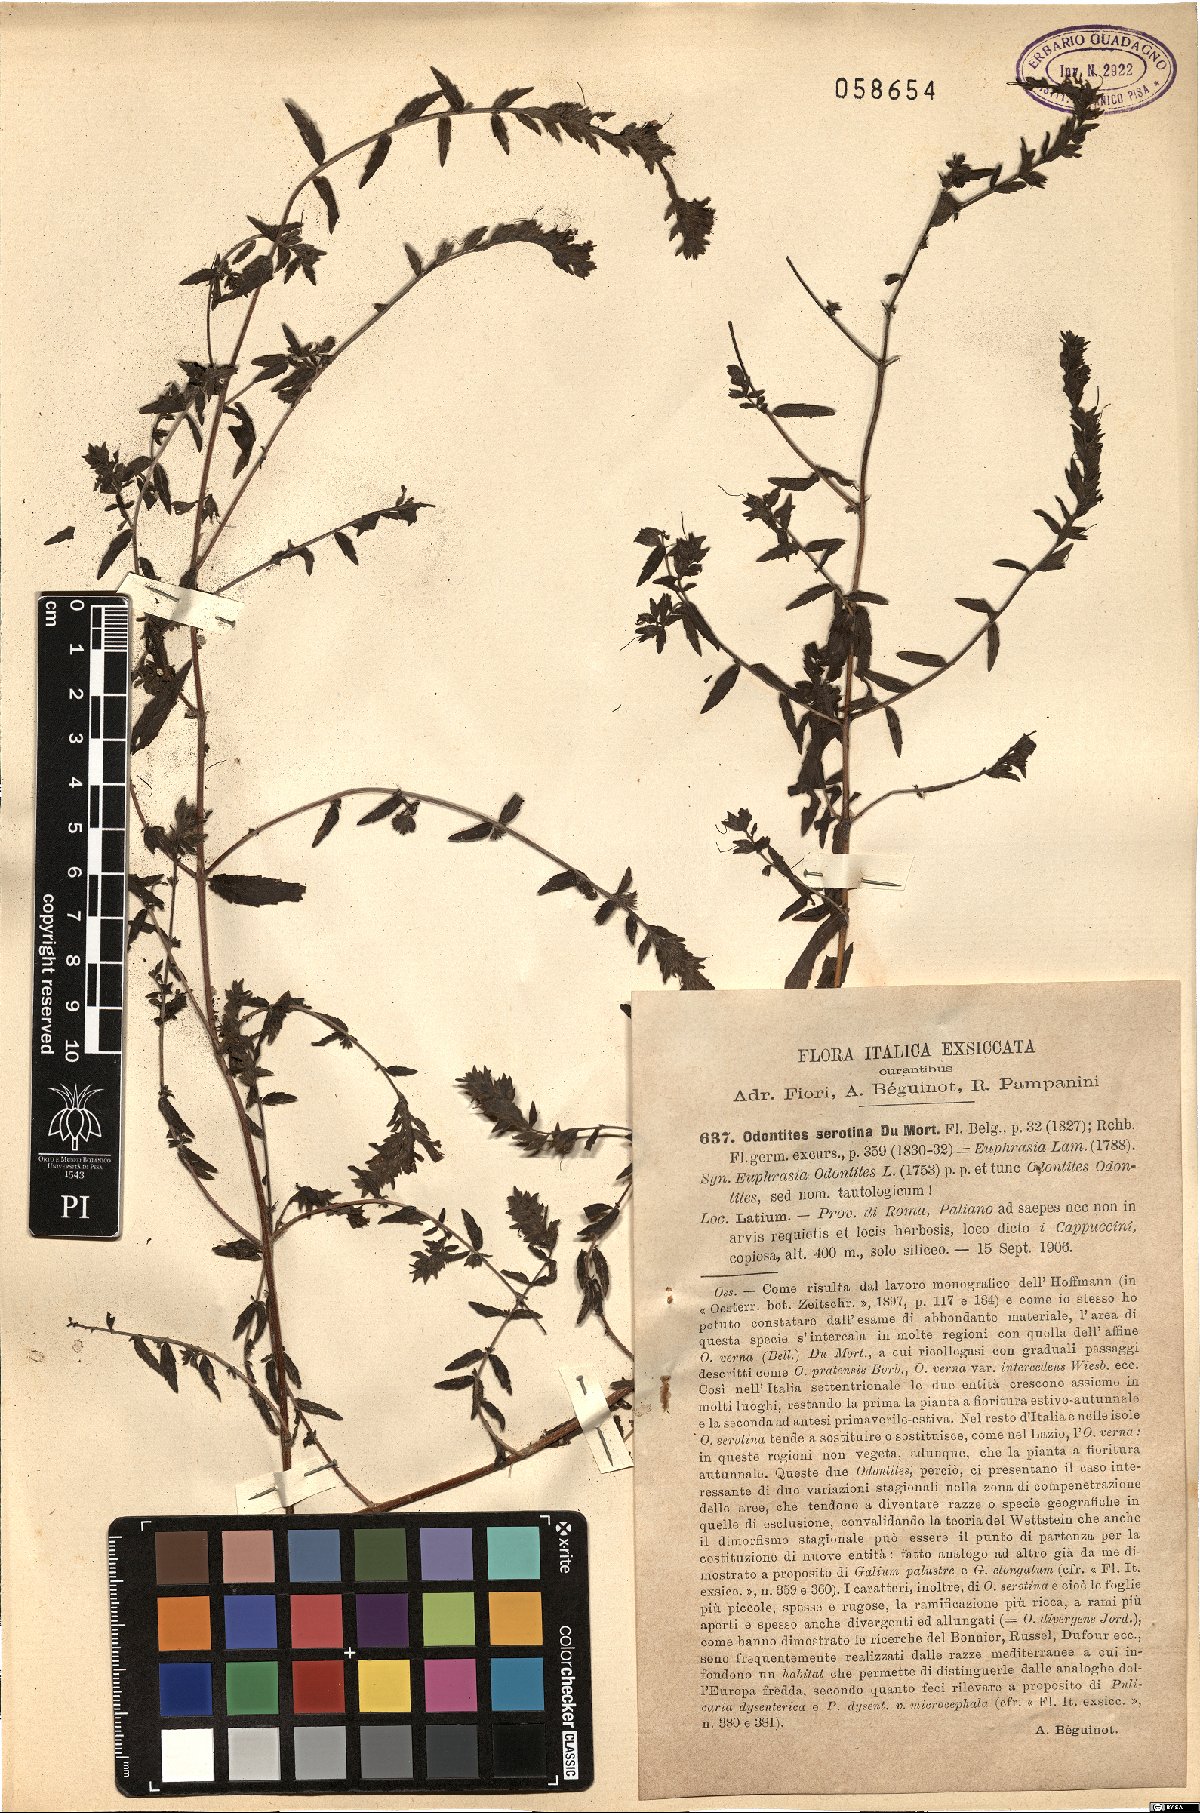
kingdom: Plantae
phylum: Tracheophyta
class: Magnoliopsida
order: Lamiales
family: Orobanchaceae
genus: Odontites
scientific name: Odontites vulgaris
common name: Broomrape
